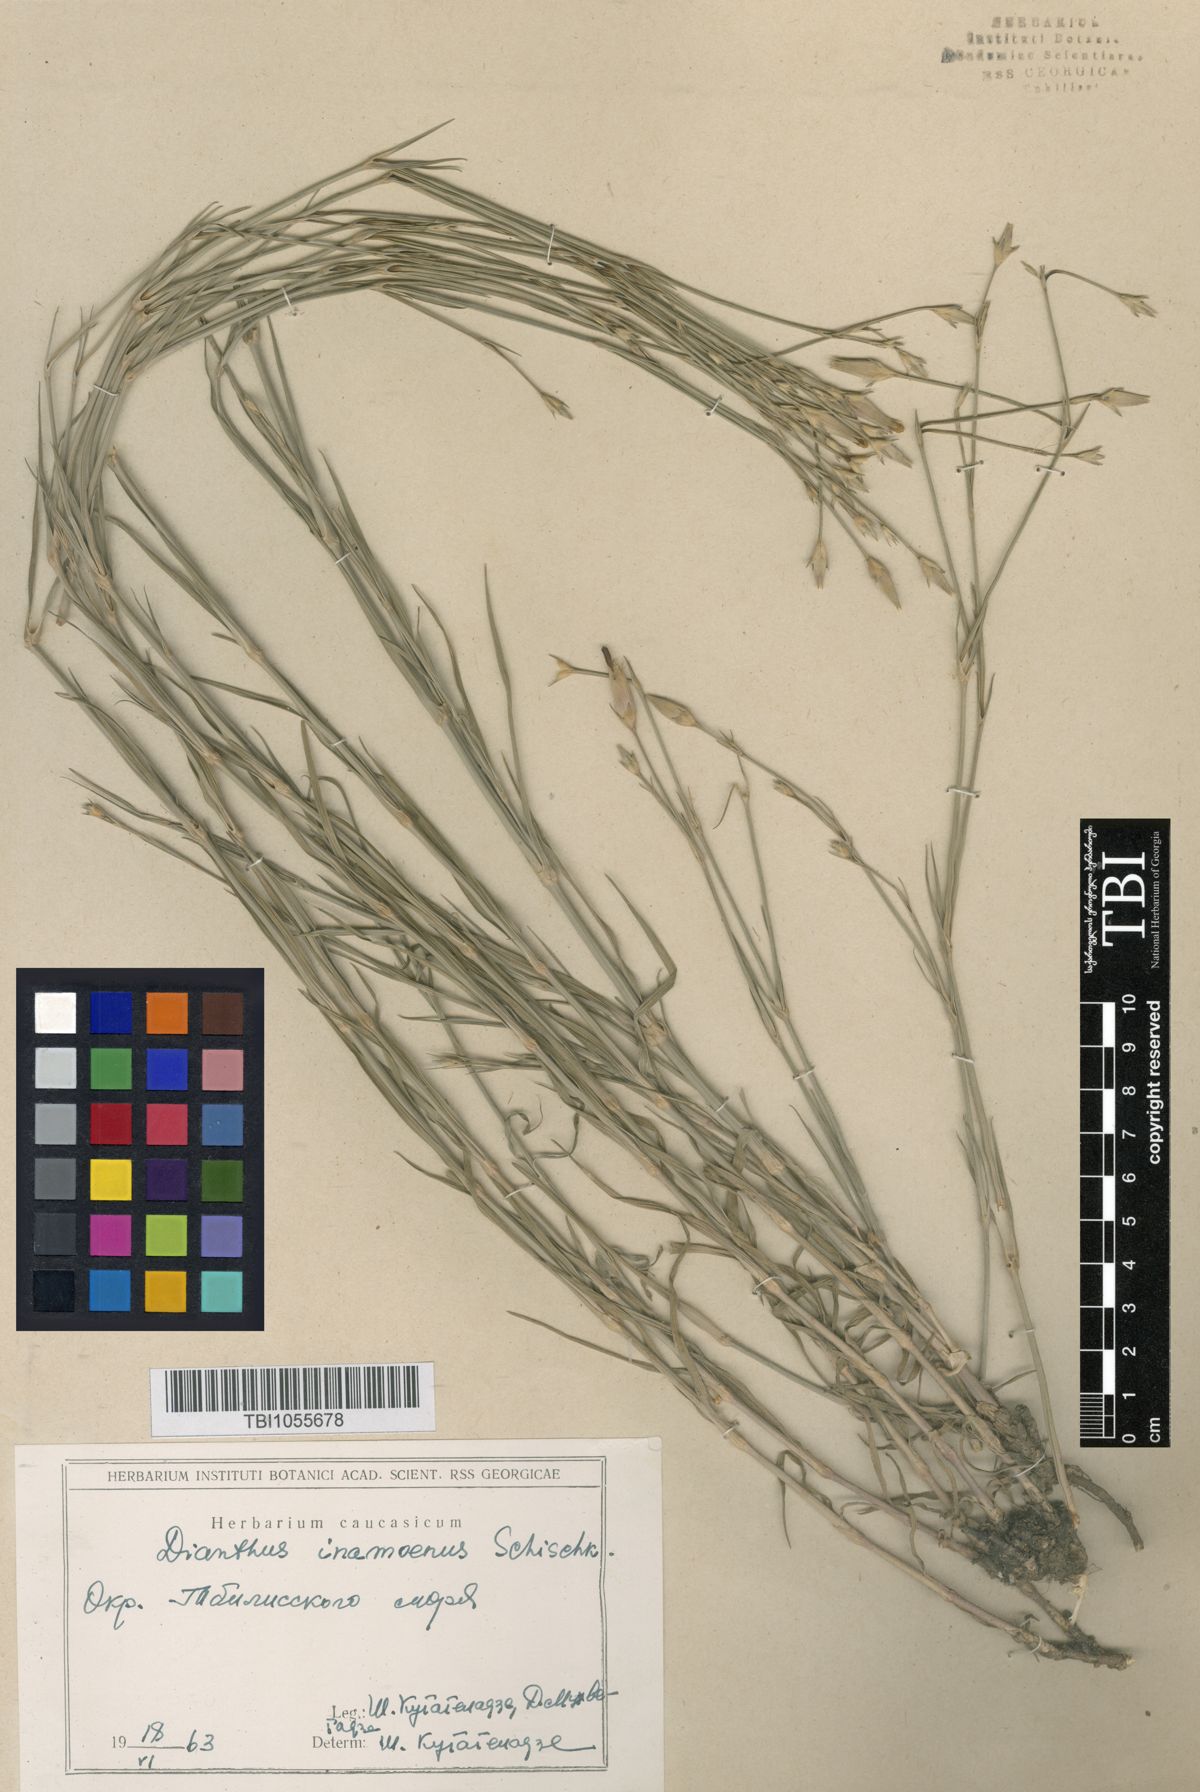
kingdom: Plantae
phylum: Tracheophyta
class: Magnoliopsida
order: Caryophyllales
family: Caryophyllaceae
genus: Dianthus
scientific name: Dianthus inamoenus
